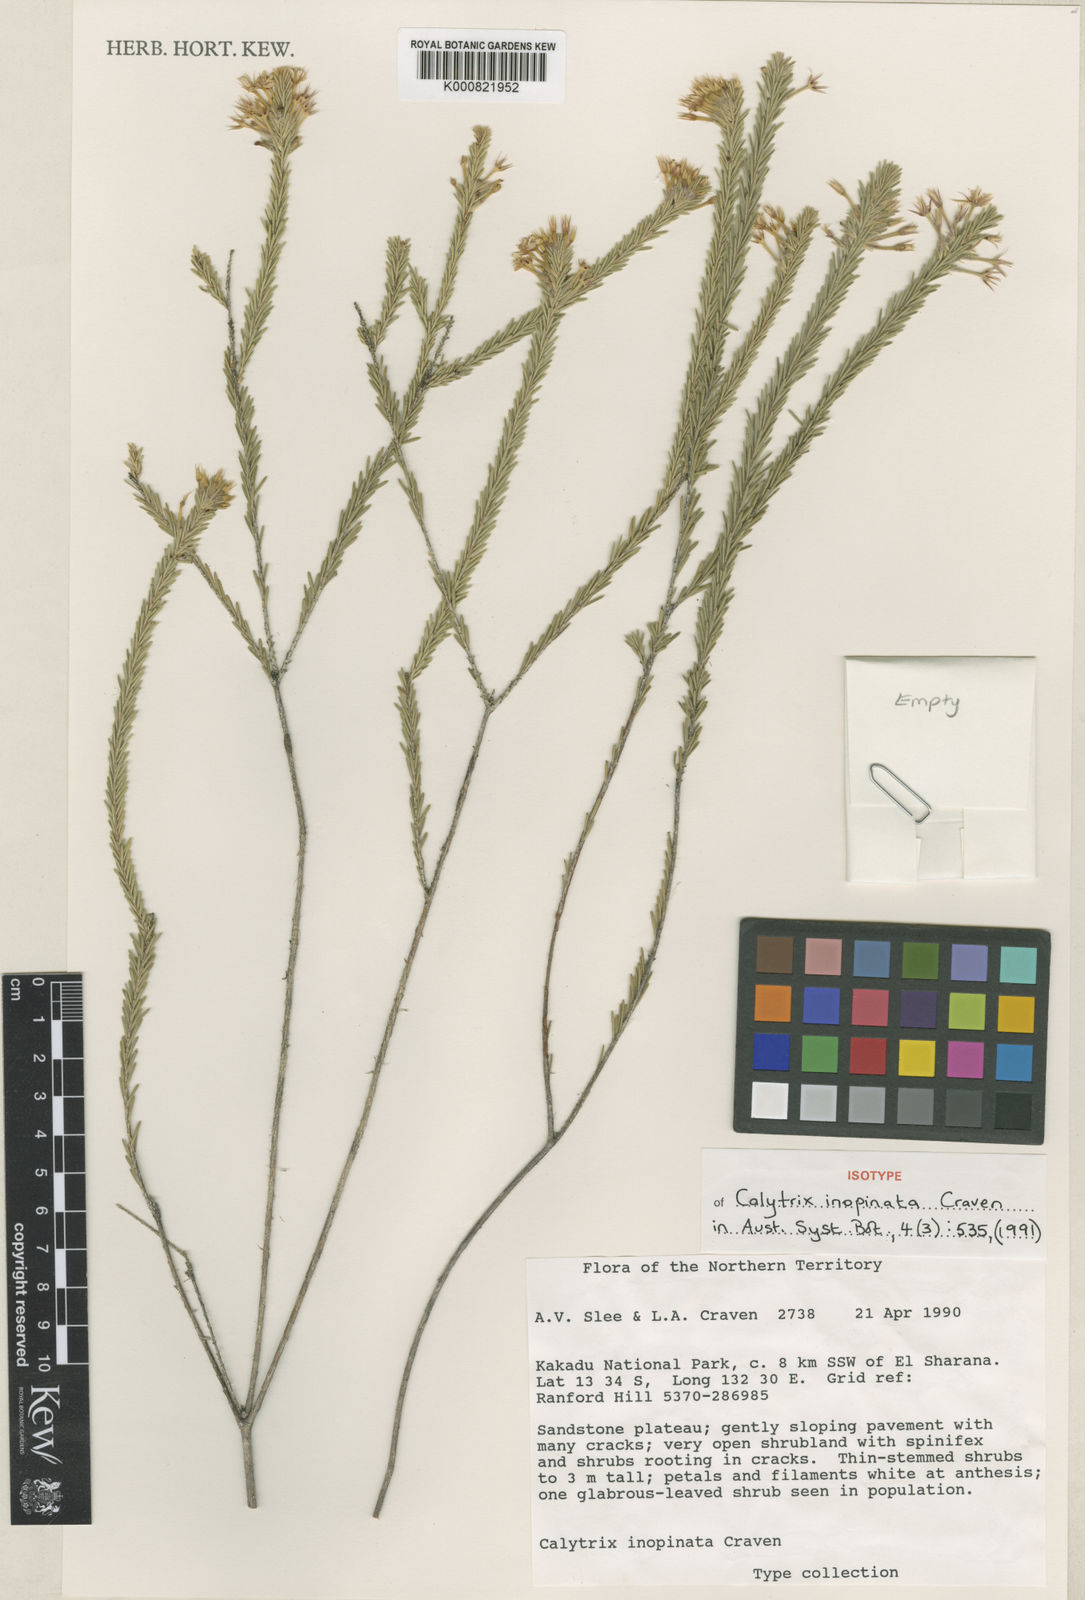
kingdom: Plantae
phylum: Tracheophyta
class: Magnoliopsida
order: Myrtales
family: Myrtaceae
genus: Calytrix
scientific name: Calytrix inopinata
